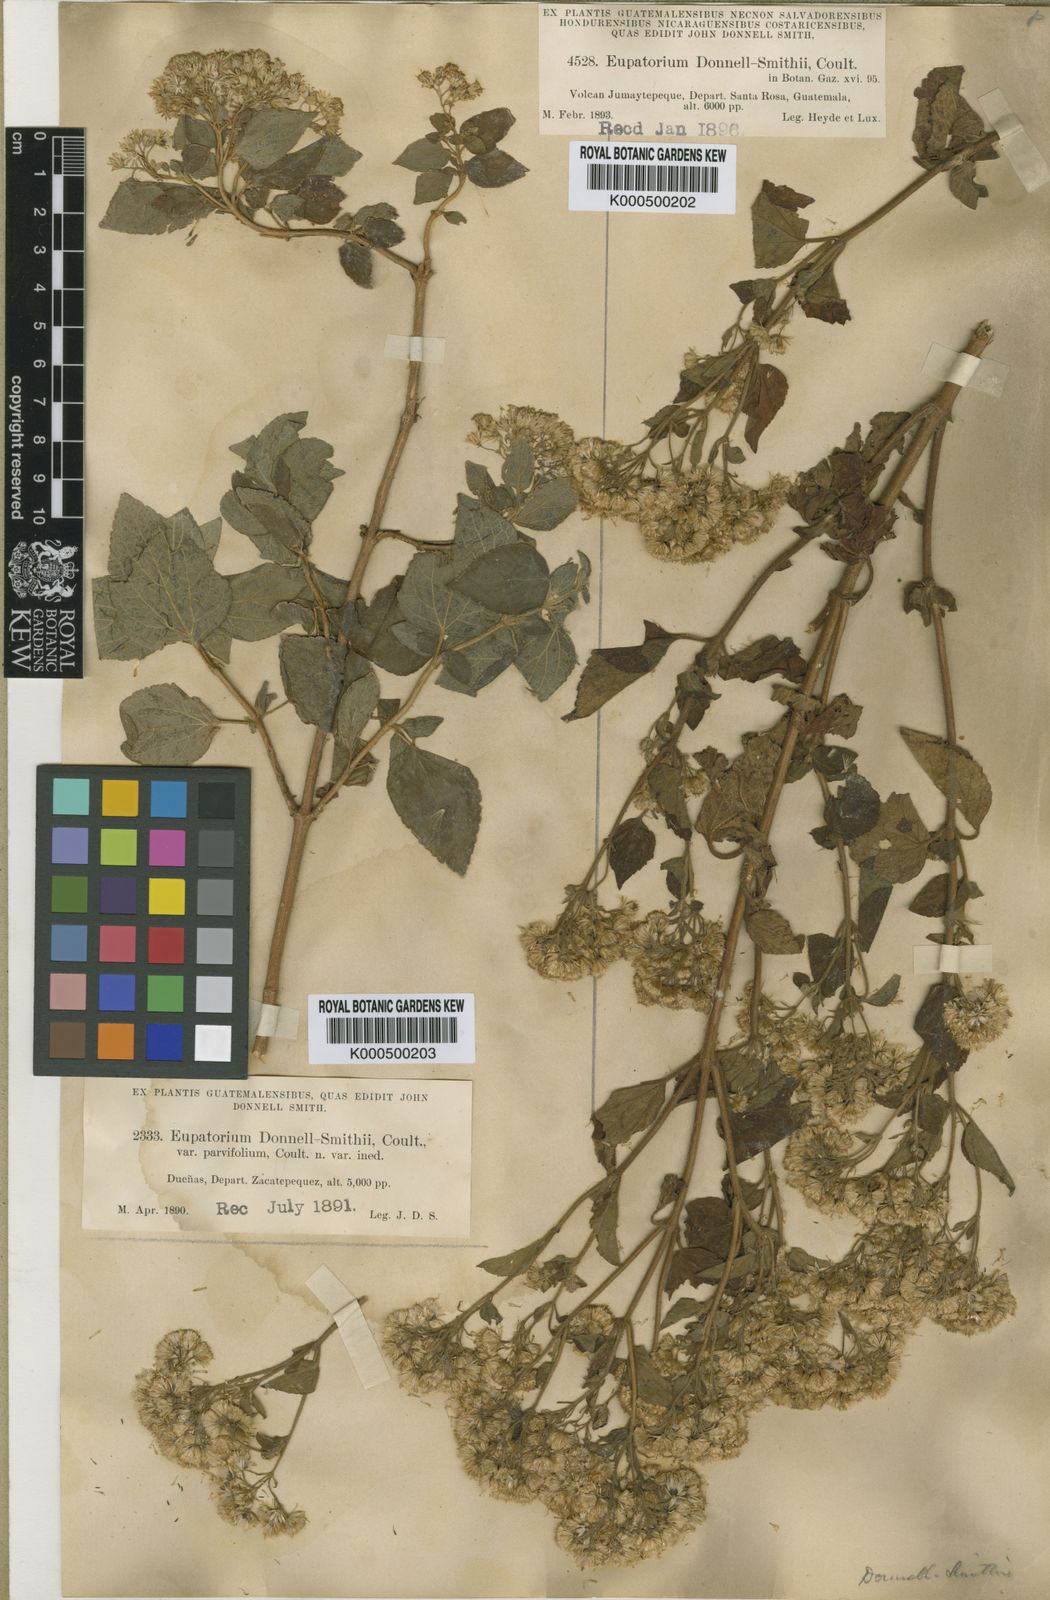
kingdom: Plantae
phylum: Tracheophyta
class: Magnoliopsida
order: Asterales
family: Asteraceae
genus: Ageratina
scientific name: Ageratina pichinchensis
